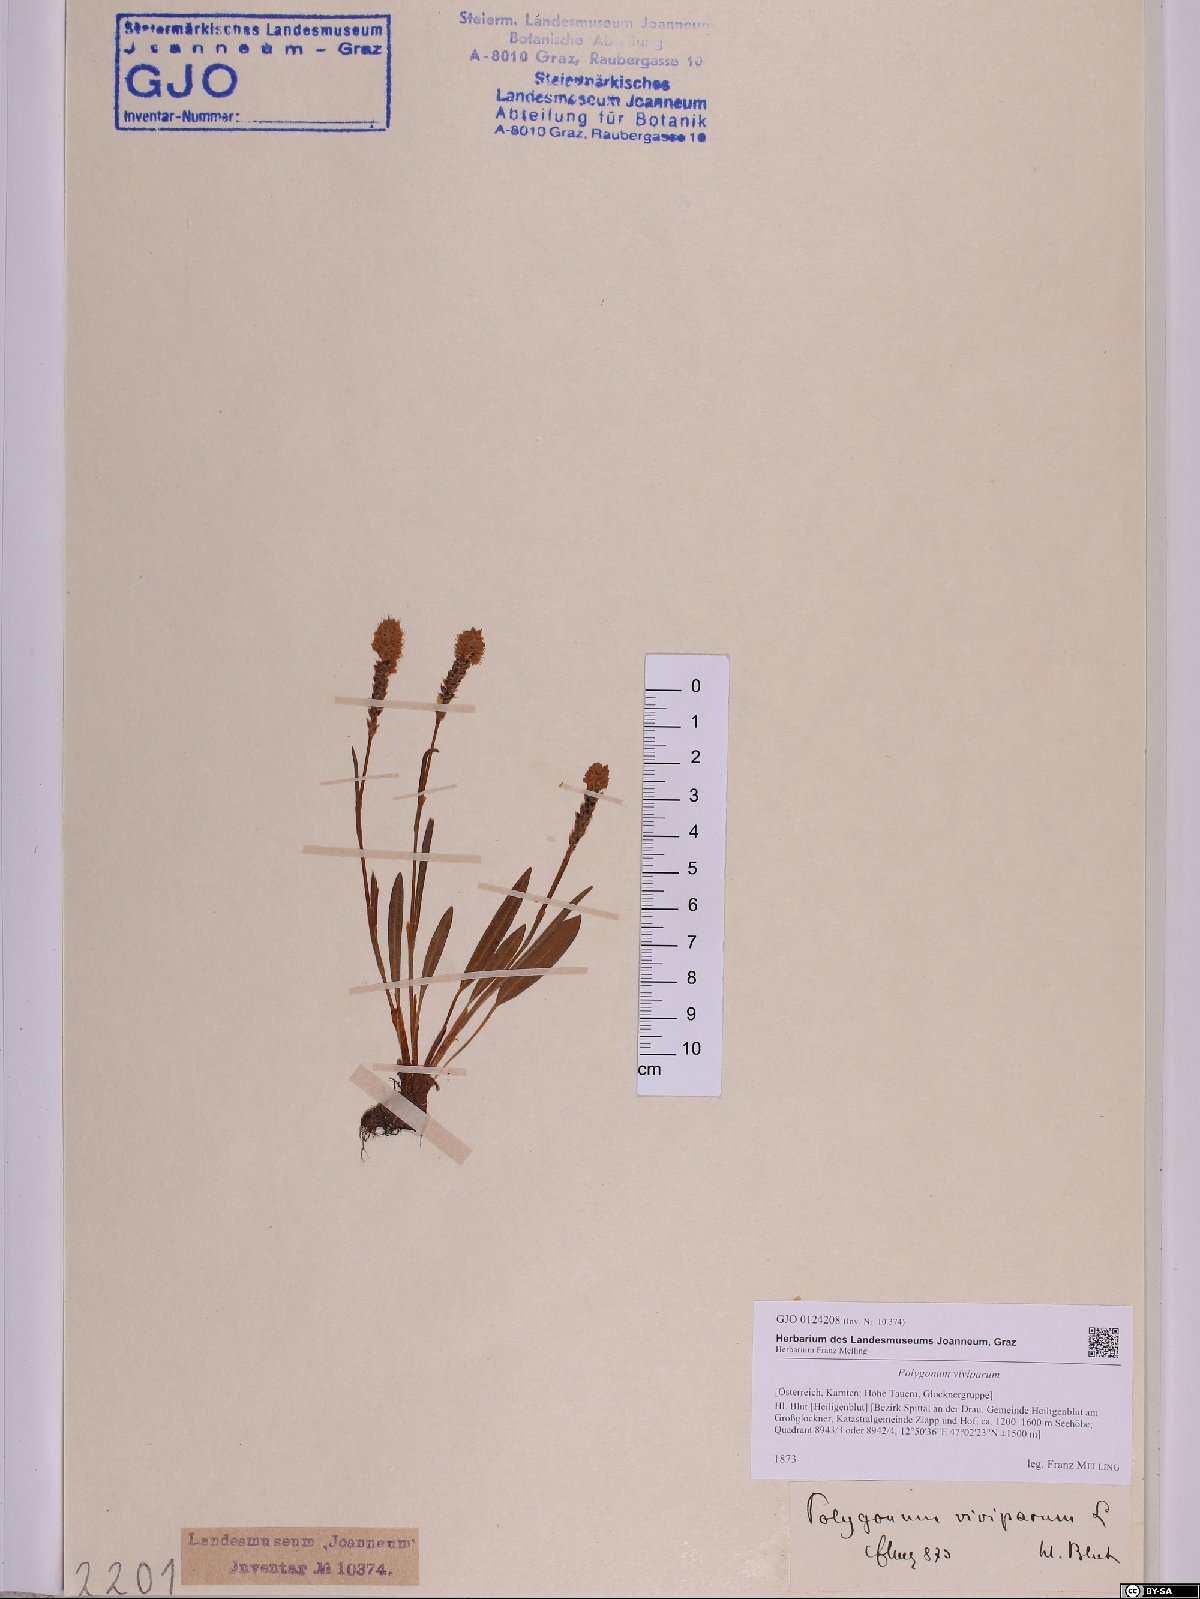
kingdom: Plantae
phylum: Tracheophyta
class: Magnoliopsida
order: Caryophyllales
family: Polygonaceae
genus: Bistorta
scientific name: Bistorta vivipara
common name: Alpine bistort
